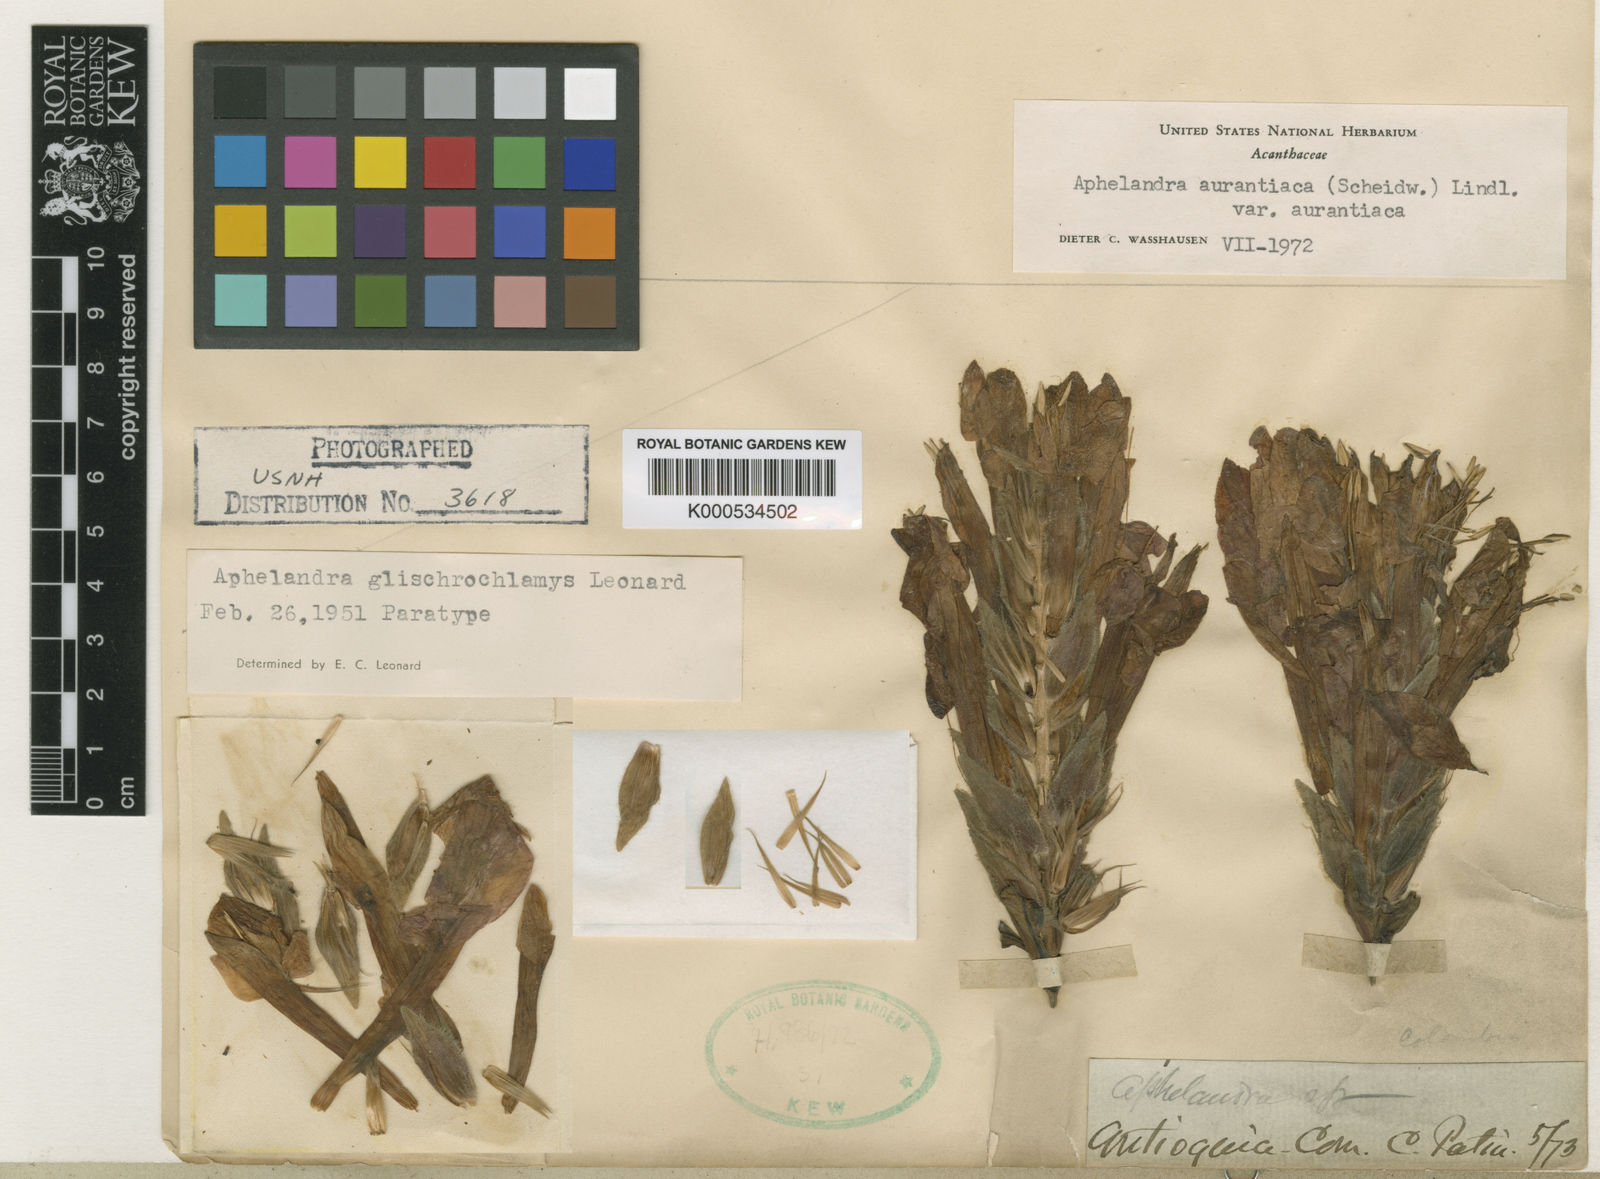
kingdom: Plantae
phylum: Tracheophyta
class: Magnoliopsida
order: Lamiales
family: Acanthaceae
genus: Aphelandra
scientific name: Aphelandra aurantiaca
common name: Fiery spike
